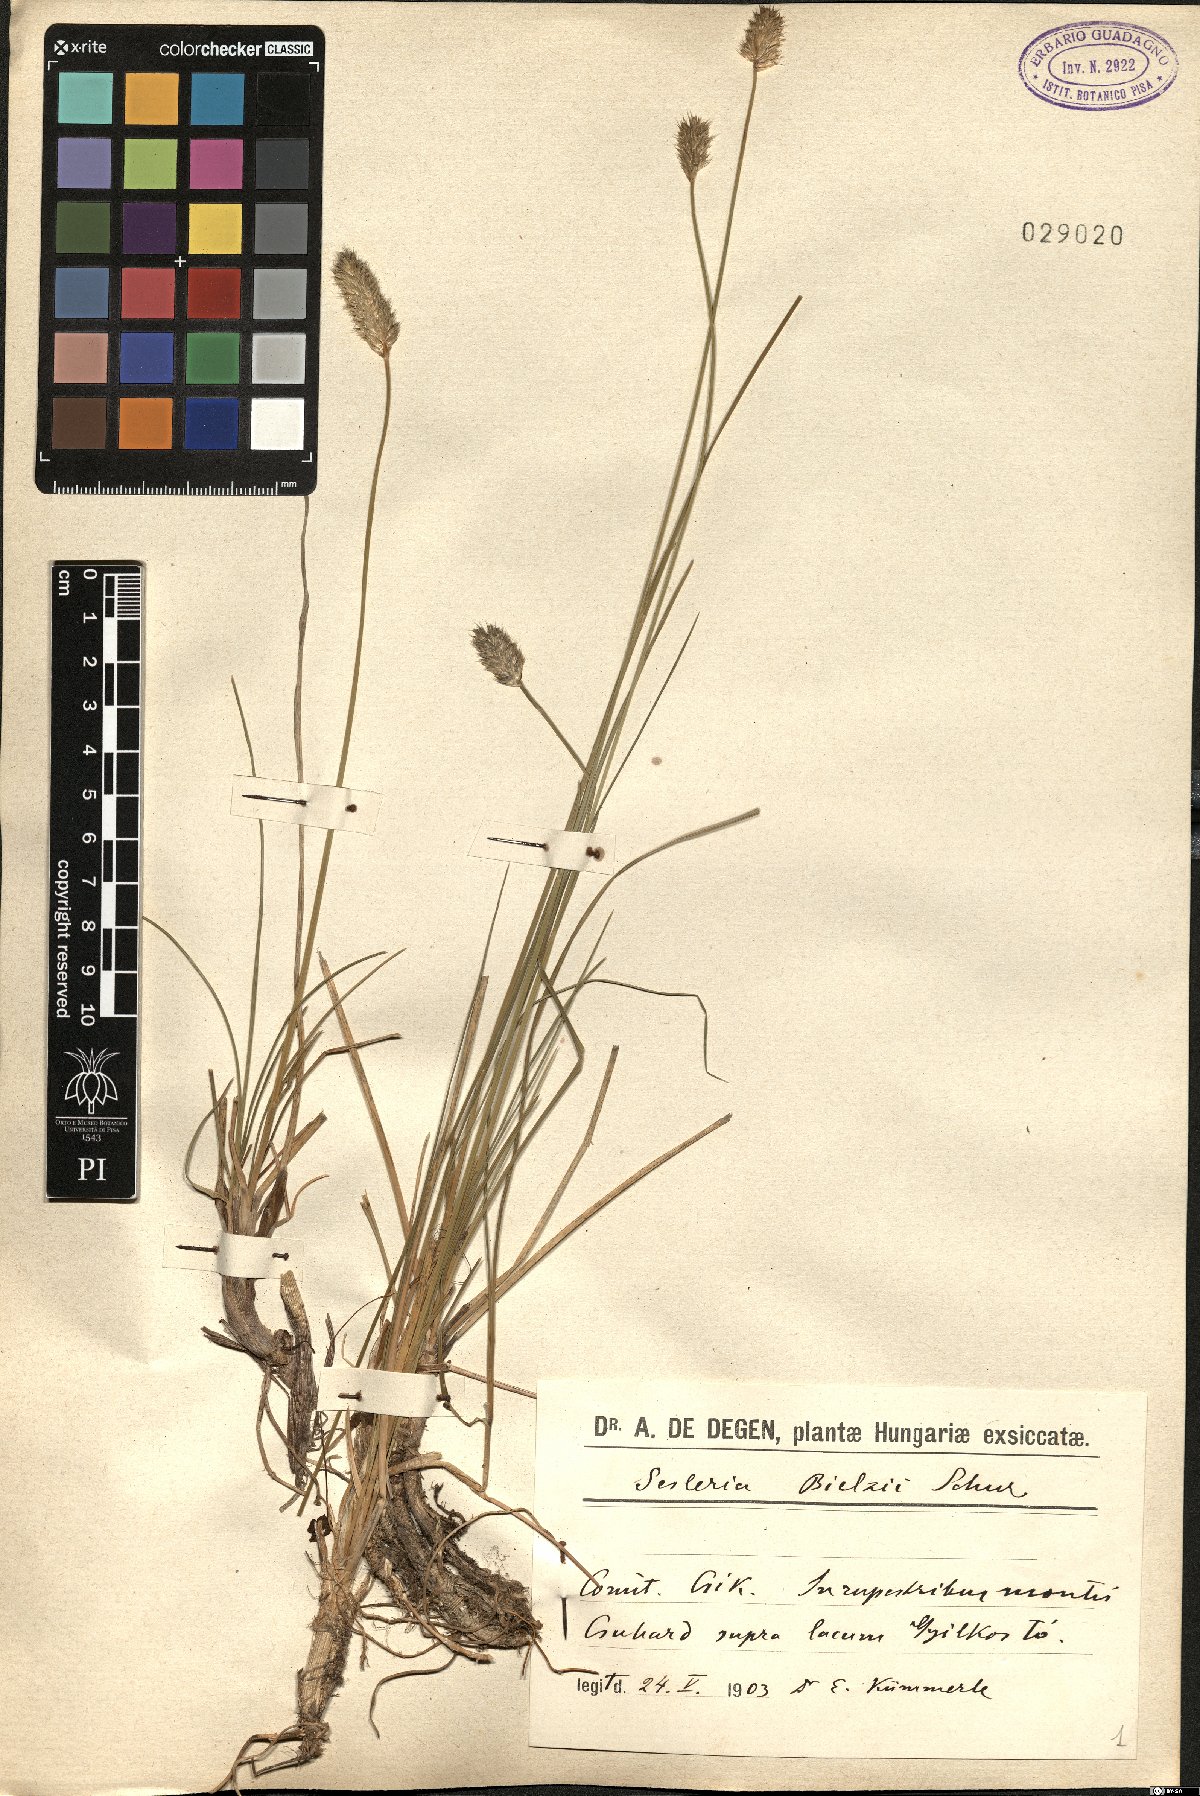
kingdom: Plantae
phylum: Tracheophyta
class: Liliopsida
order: Poales
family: Poaceae
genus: Sesleria
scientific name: Sesleria bielzii
